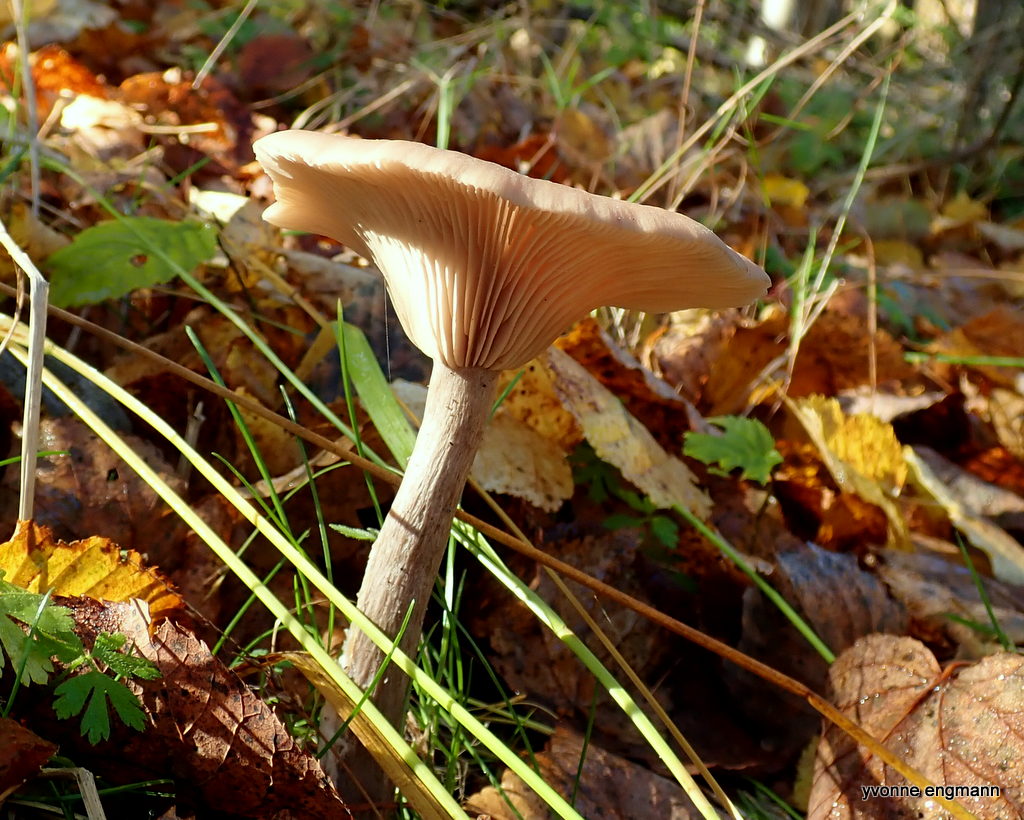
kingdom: Fungi
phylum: Basidiomycota
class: Agaricomycetes
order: Agaricales
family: Pseudoclitocybaceae
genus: Pseudoclitocybe
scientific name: Pseudoclitocybe cyathiformis
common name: almindelig bægertragthat
